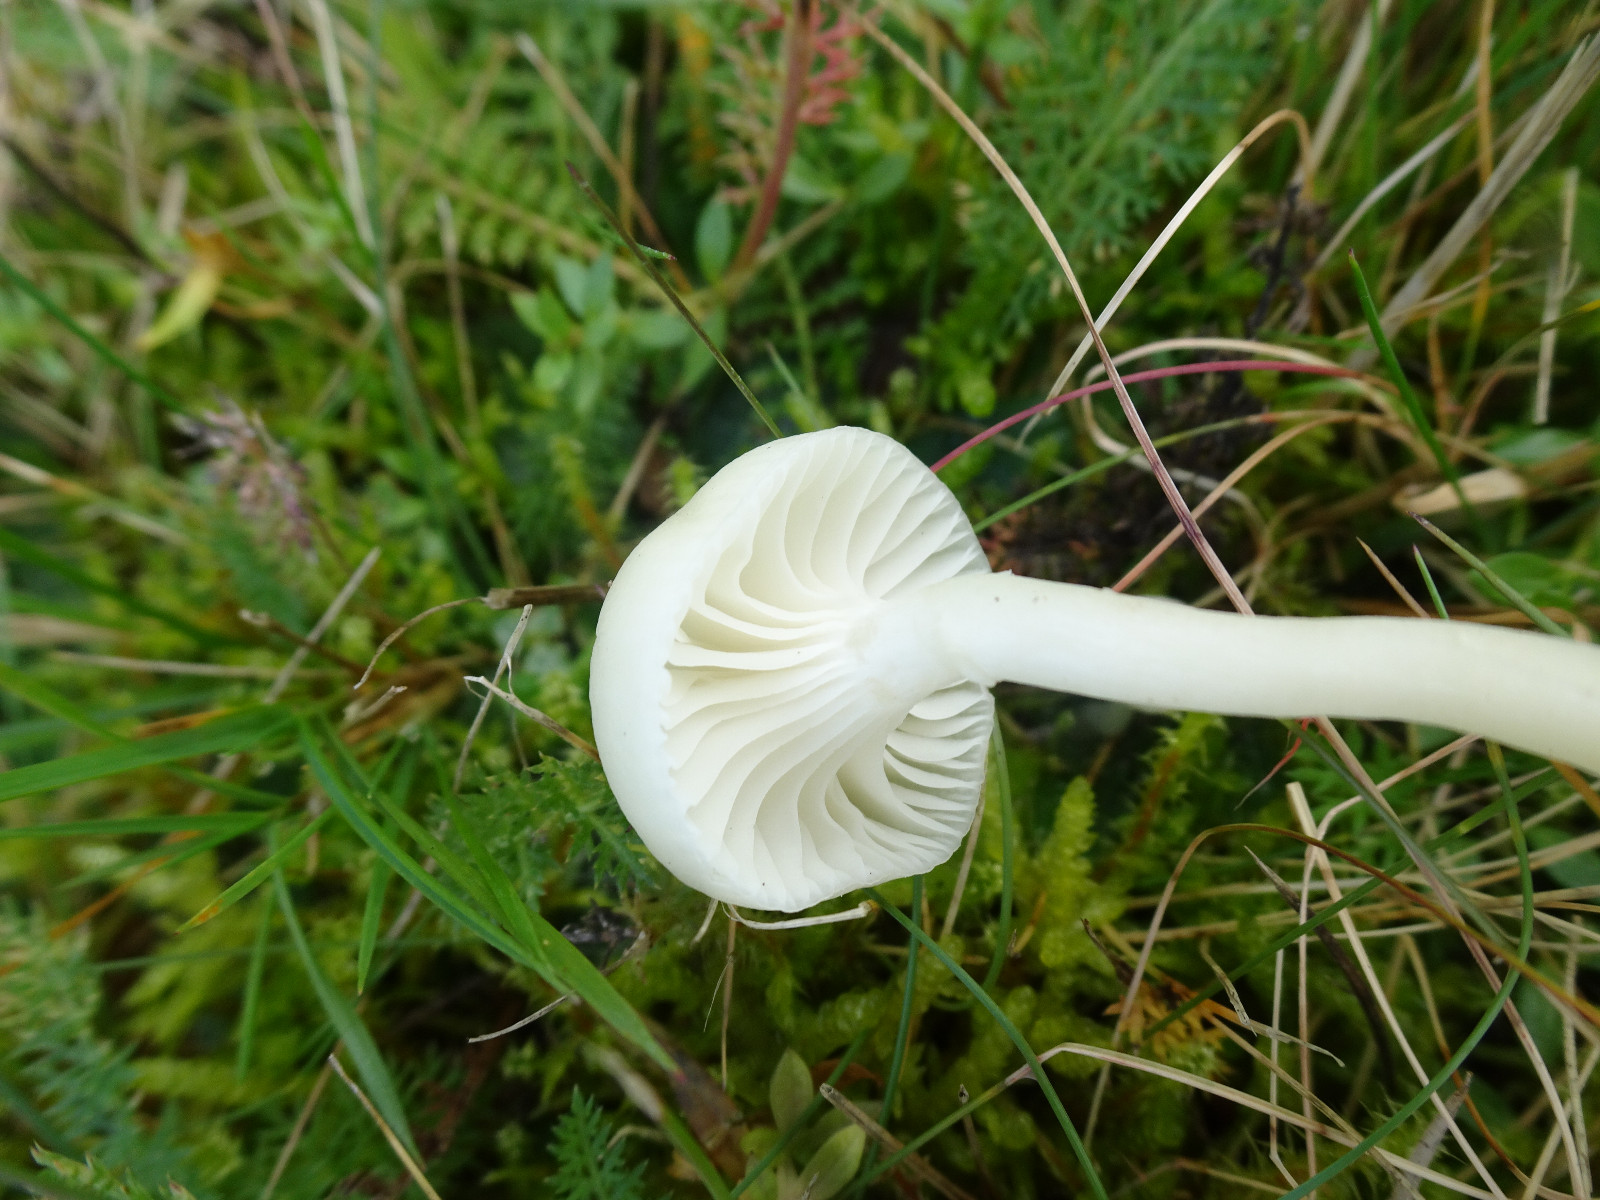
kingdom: Fungi
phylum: Basidiomycota
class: Agaricomycetes
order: Agaricales
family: Hygrophoraceae
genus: Cuphophyllus
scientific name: Cuphophyllus virgineus
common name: snehvid vokshat
